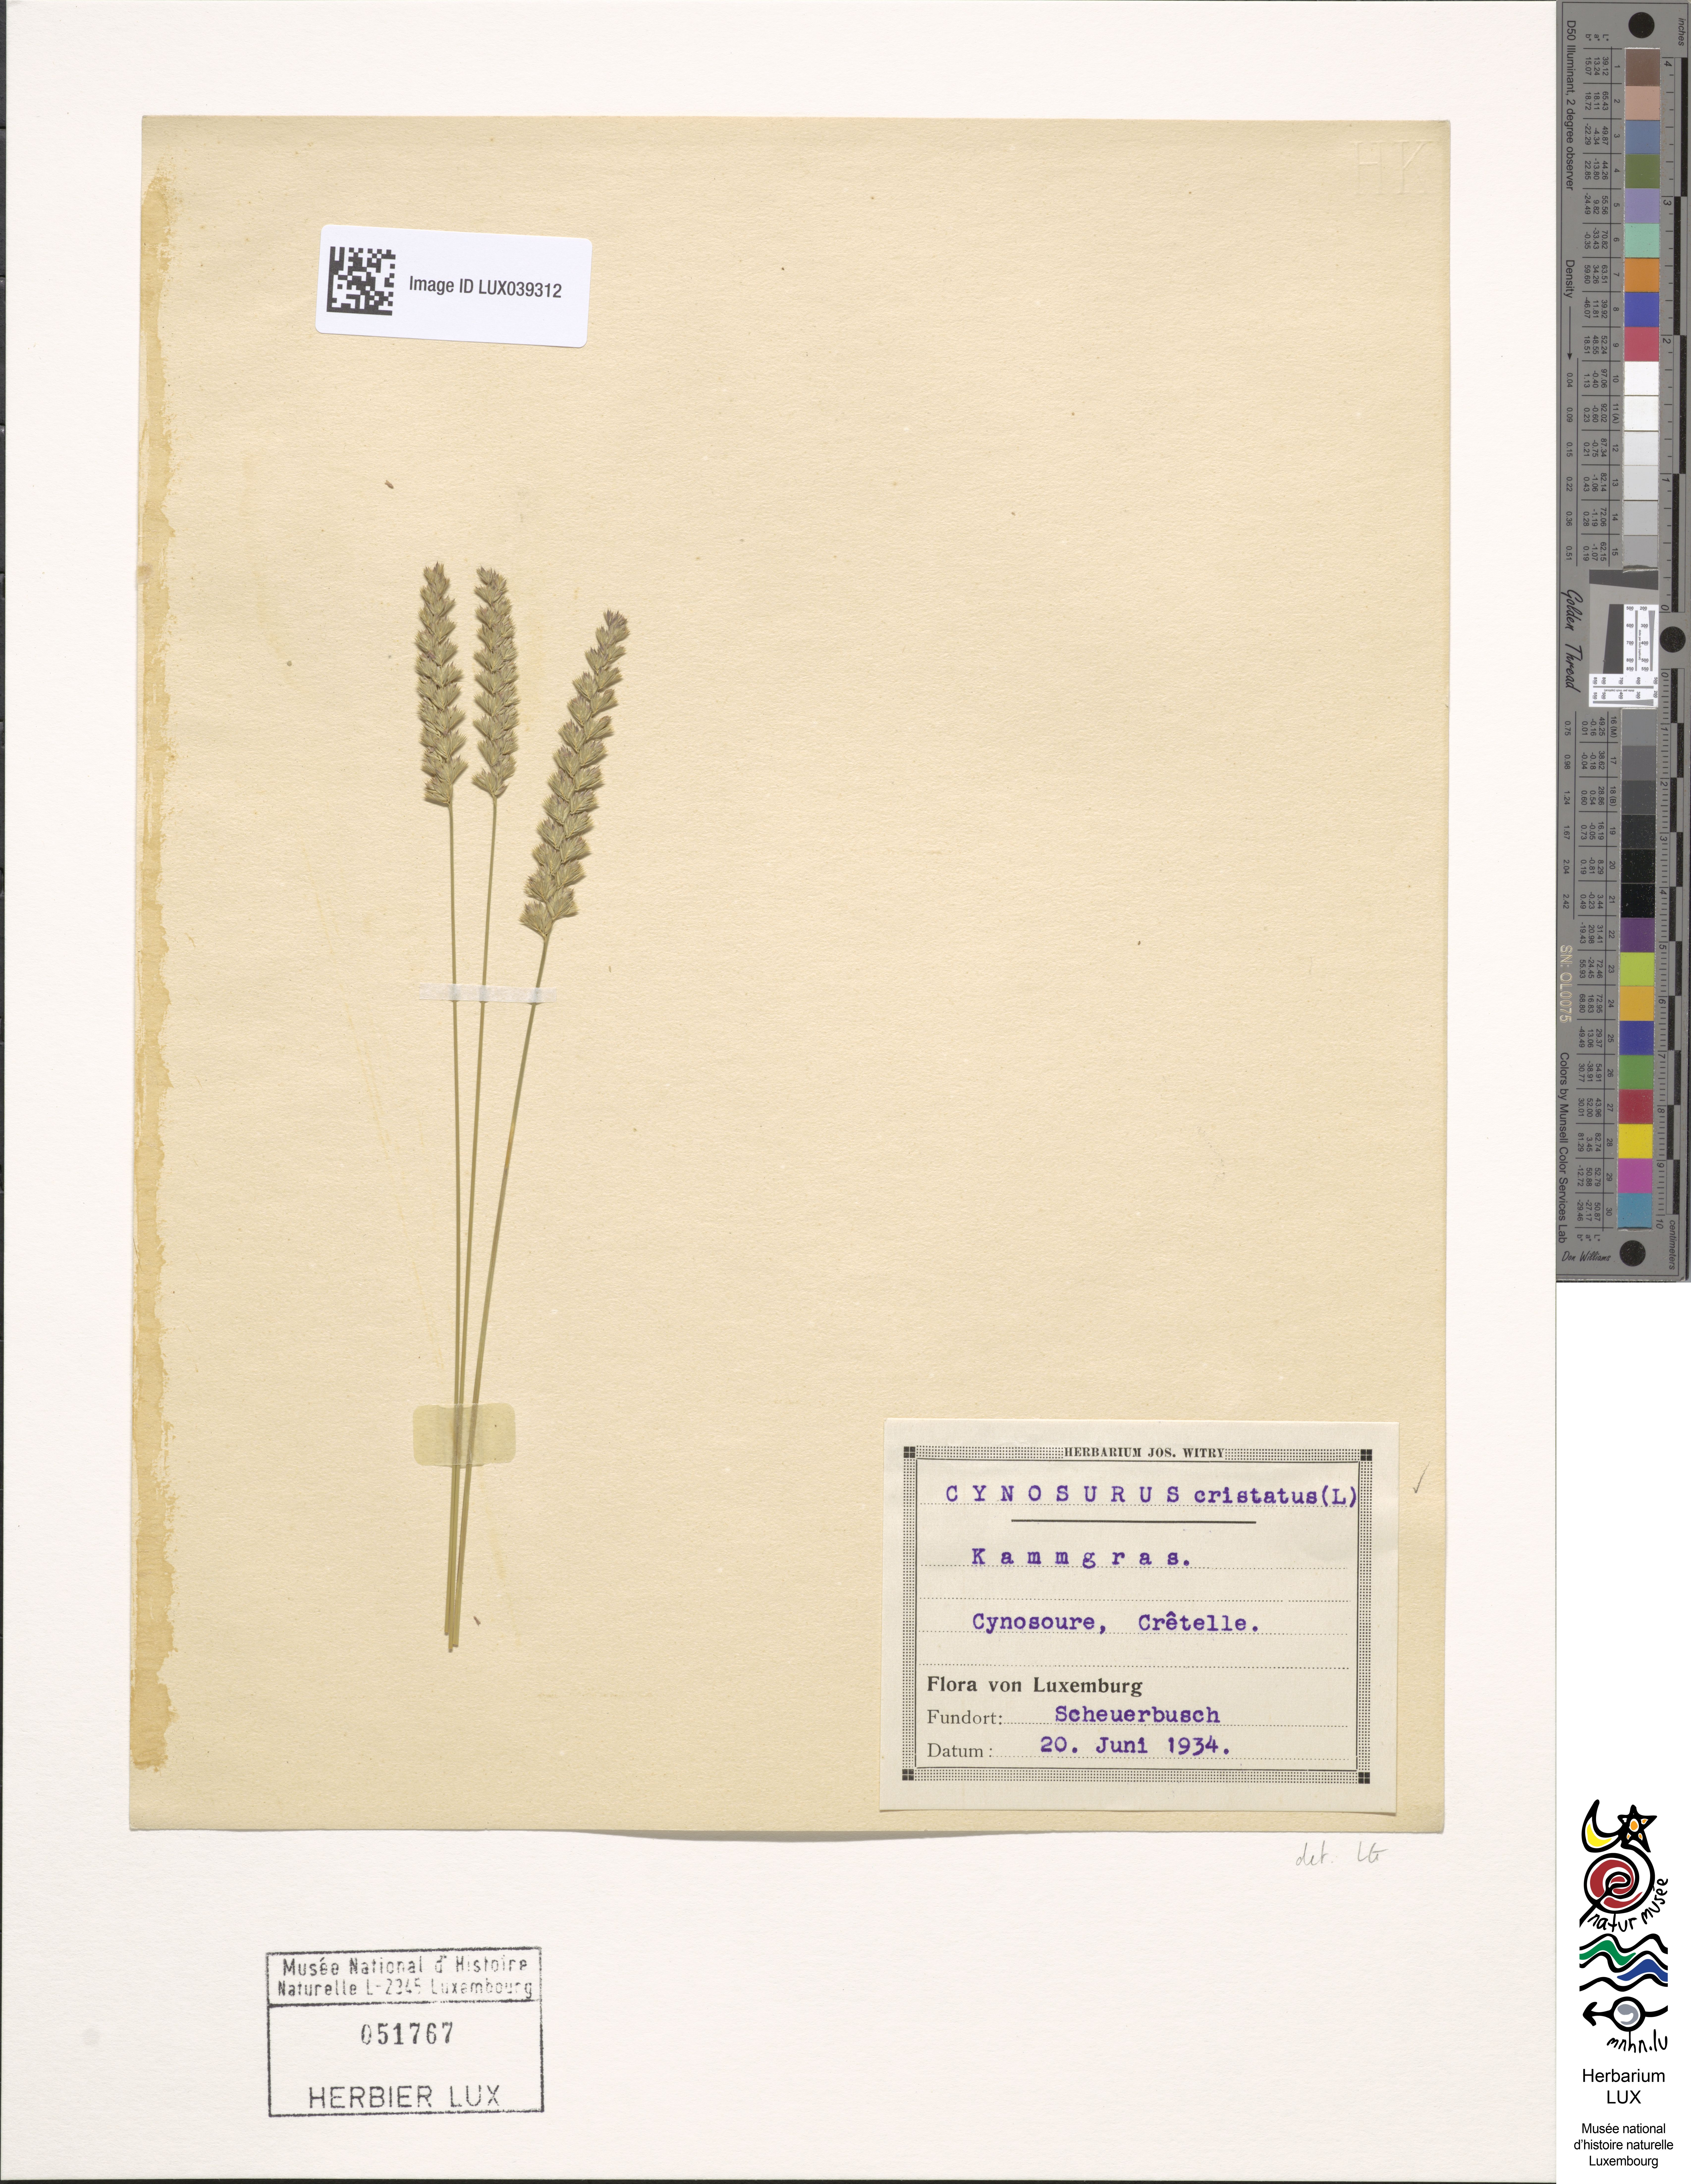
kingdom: Plantae
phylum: Tracheophyta
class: Liliopsida
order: Poales
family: Poaceae
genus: Cynosurus
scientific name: Cynosurus cristatus
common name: Crested dog's-tail
